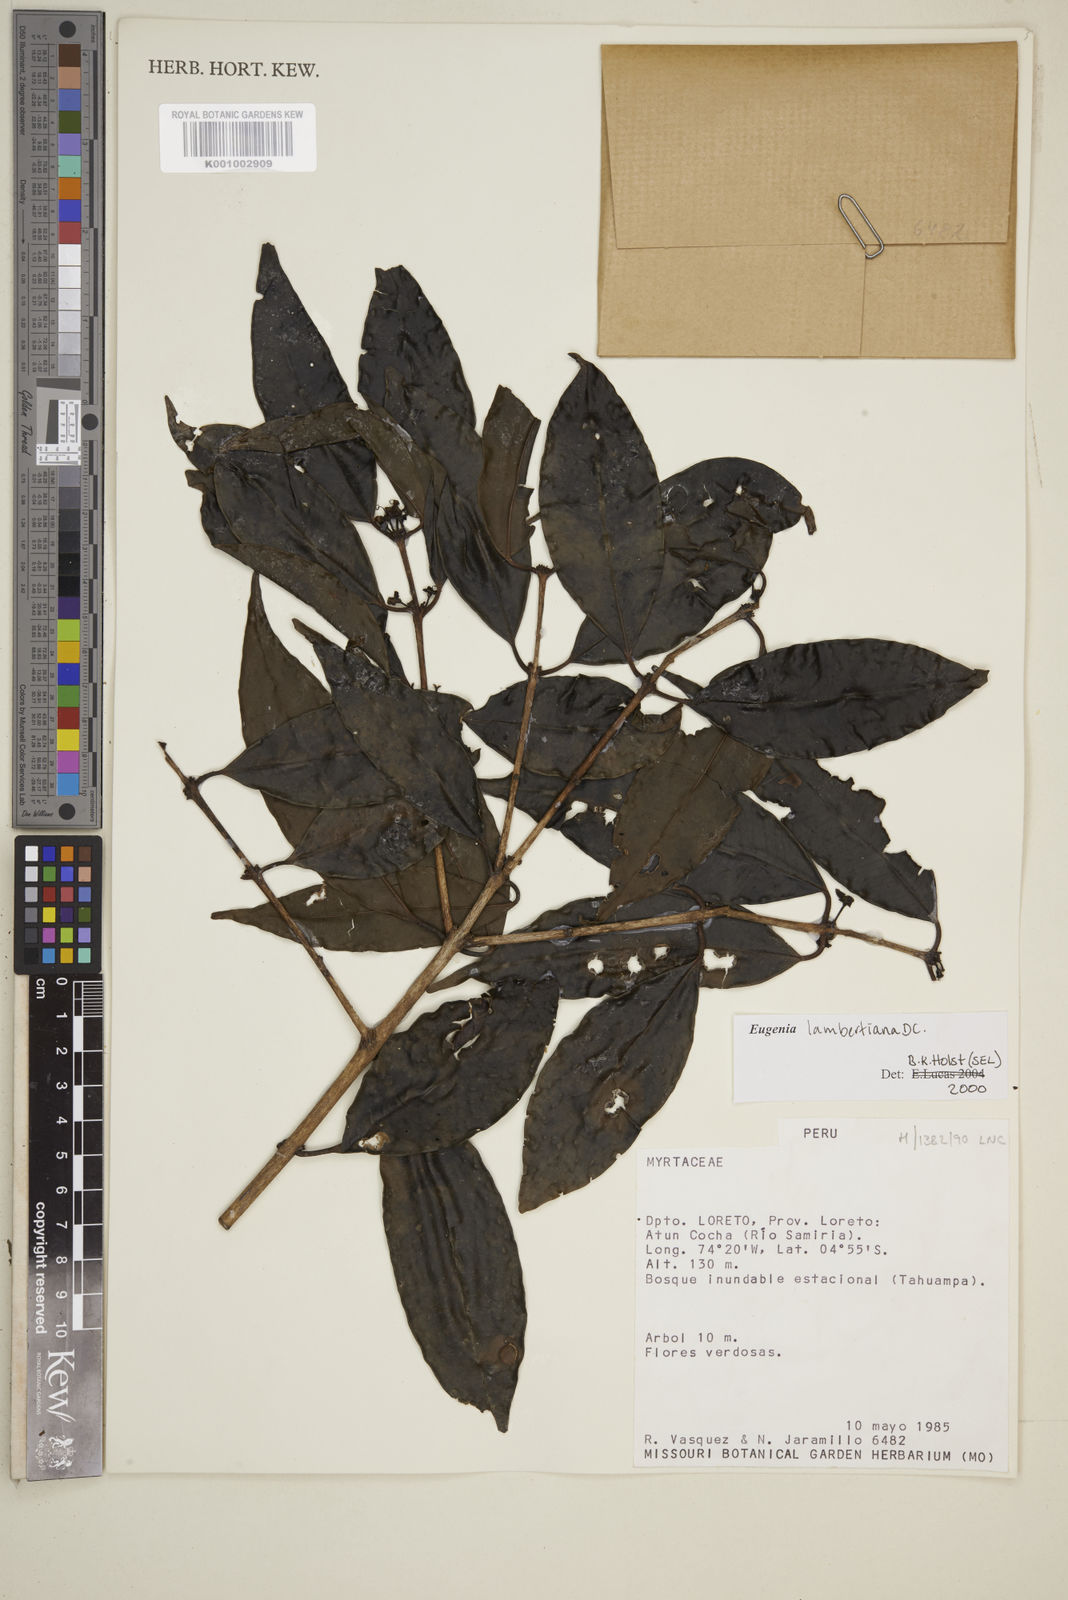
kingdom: Plantae
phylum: Tracheophyta
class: Magnoliopsida
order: Myrtales
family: Myrtaceae
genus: Eugenia
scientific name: Eugenia lambertiana
